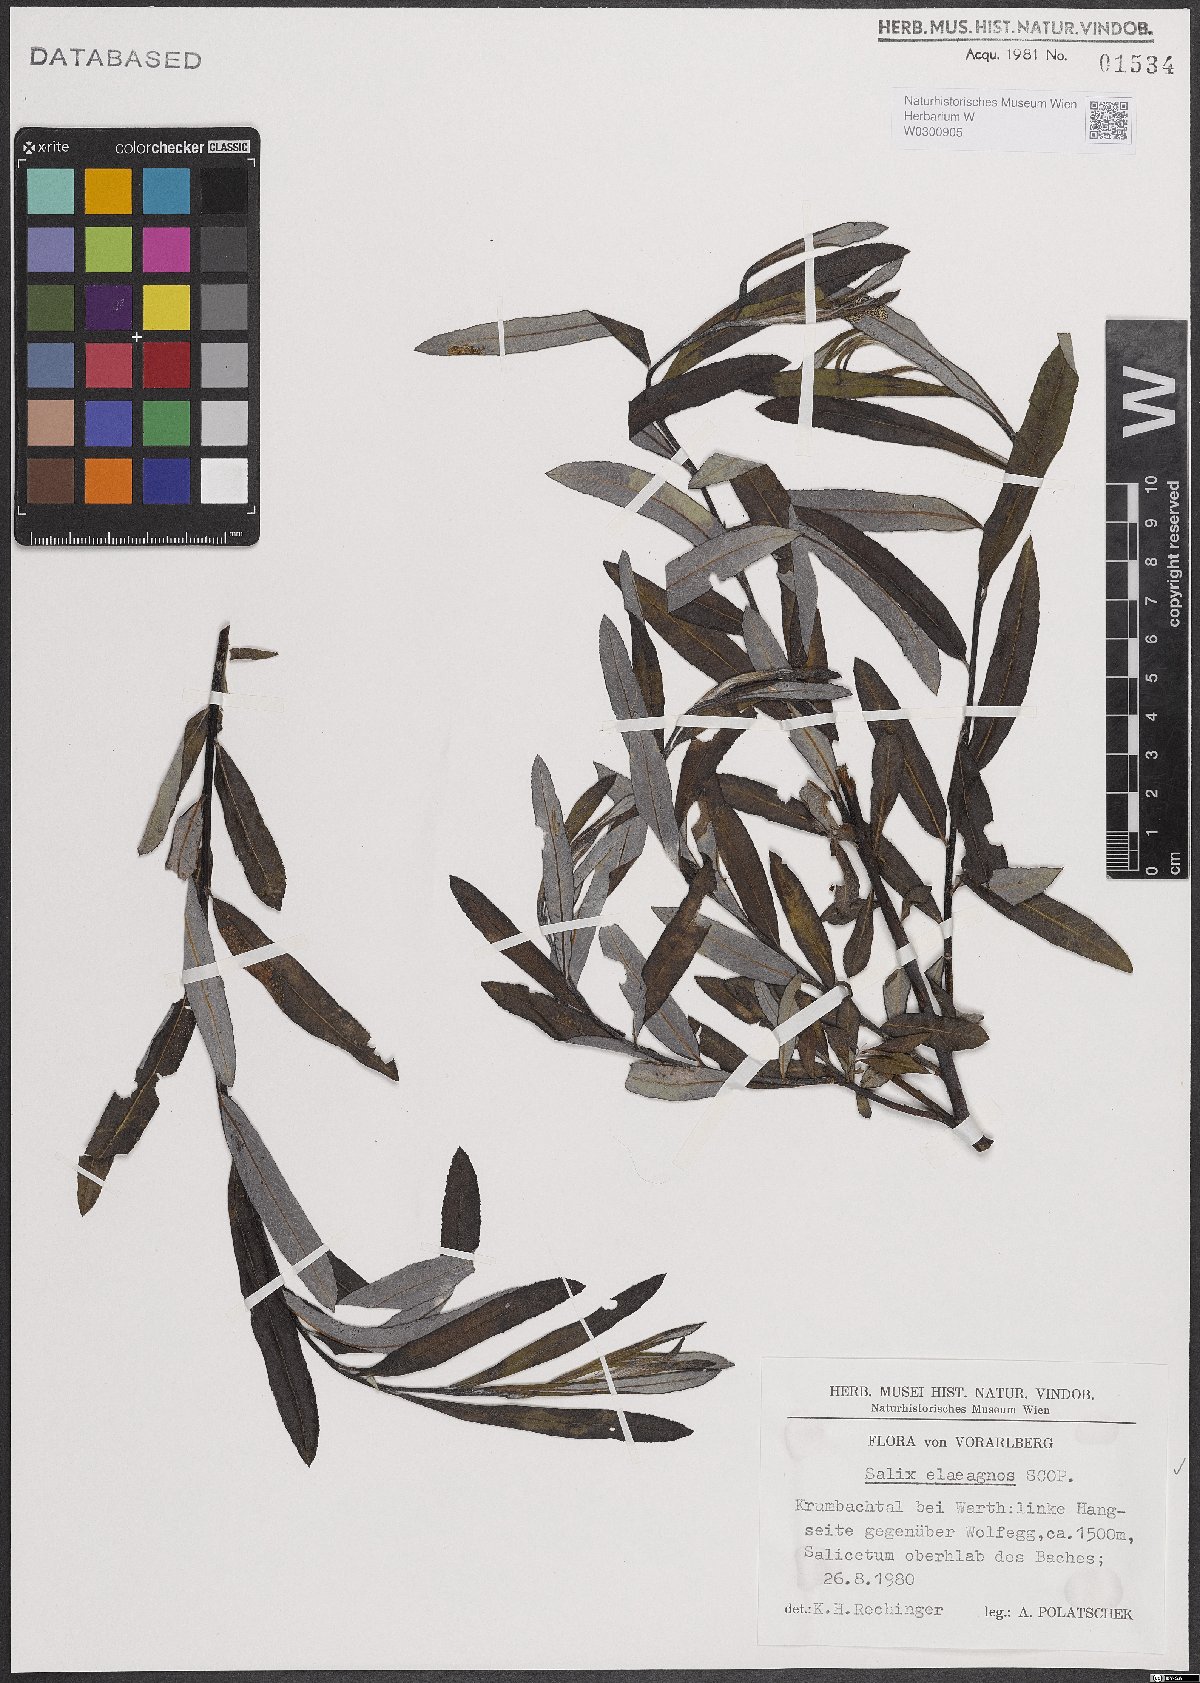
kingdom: Plantae
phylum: Tracheophyta
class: Magnoliopsida
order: Malpighiales
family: Salicaceae
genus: Salix
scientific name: Salix eleagnos
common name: Elaeagnus willow
